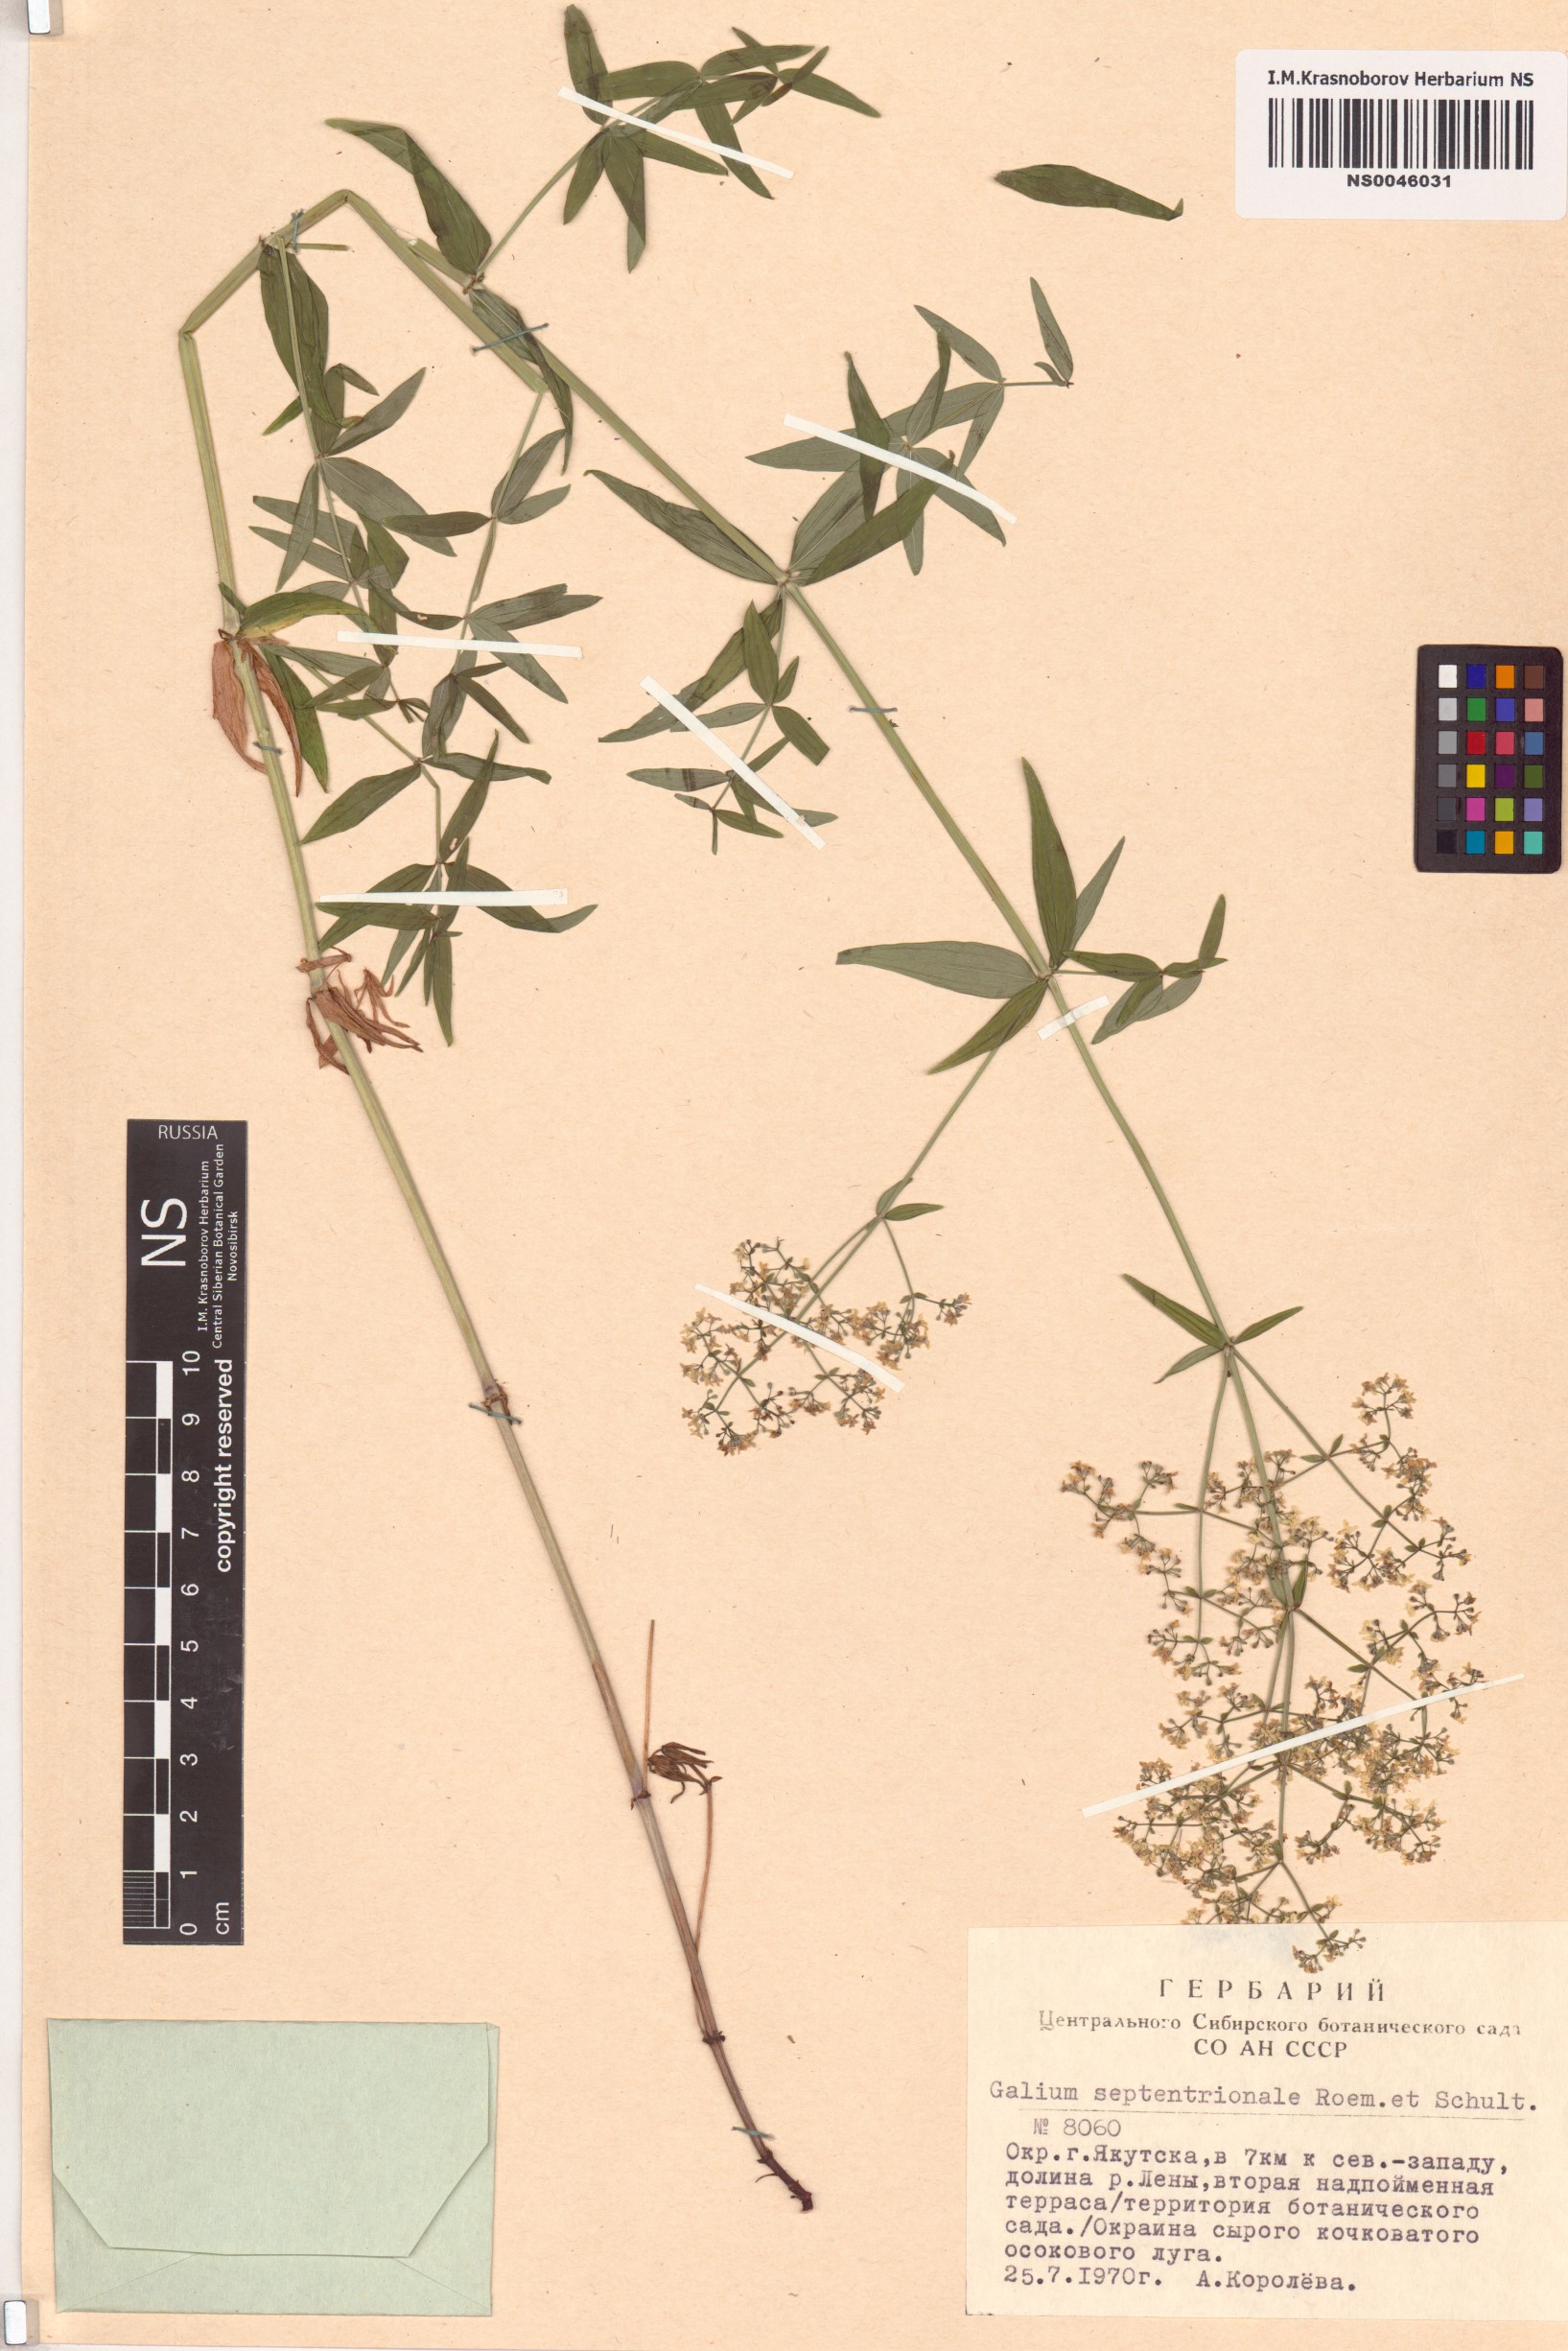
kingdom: Plantae
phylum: Tracheophyta
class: Magnoliopsida
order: Gentianales
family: Rubiaceae
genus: Galium
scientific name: Galium boreale
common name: Northern bedstraw
